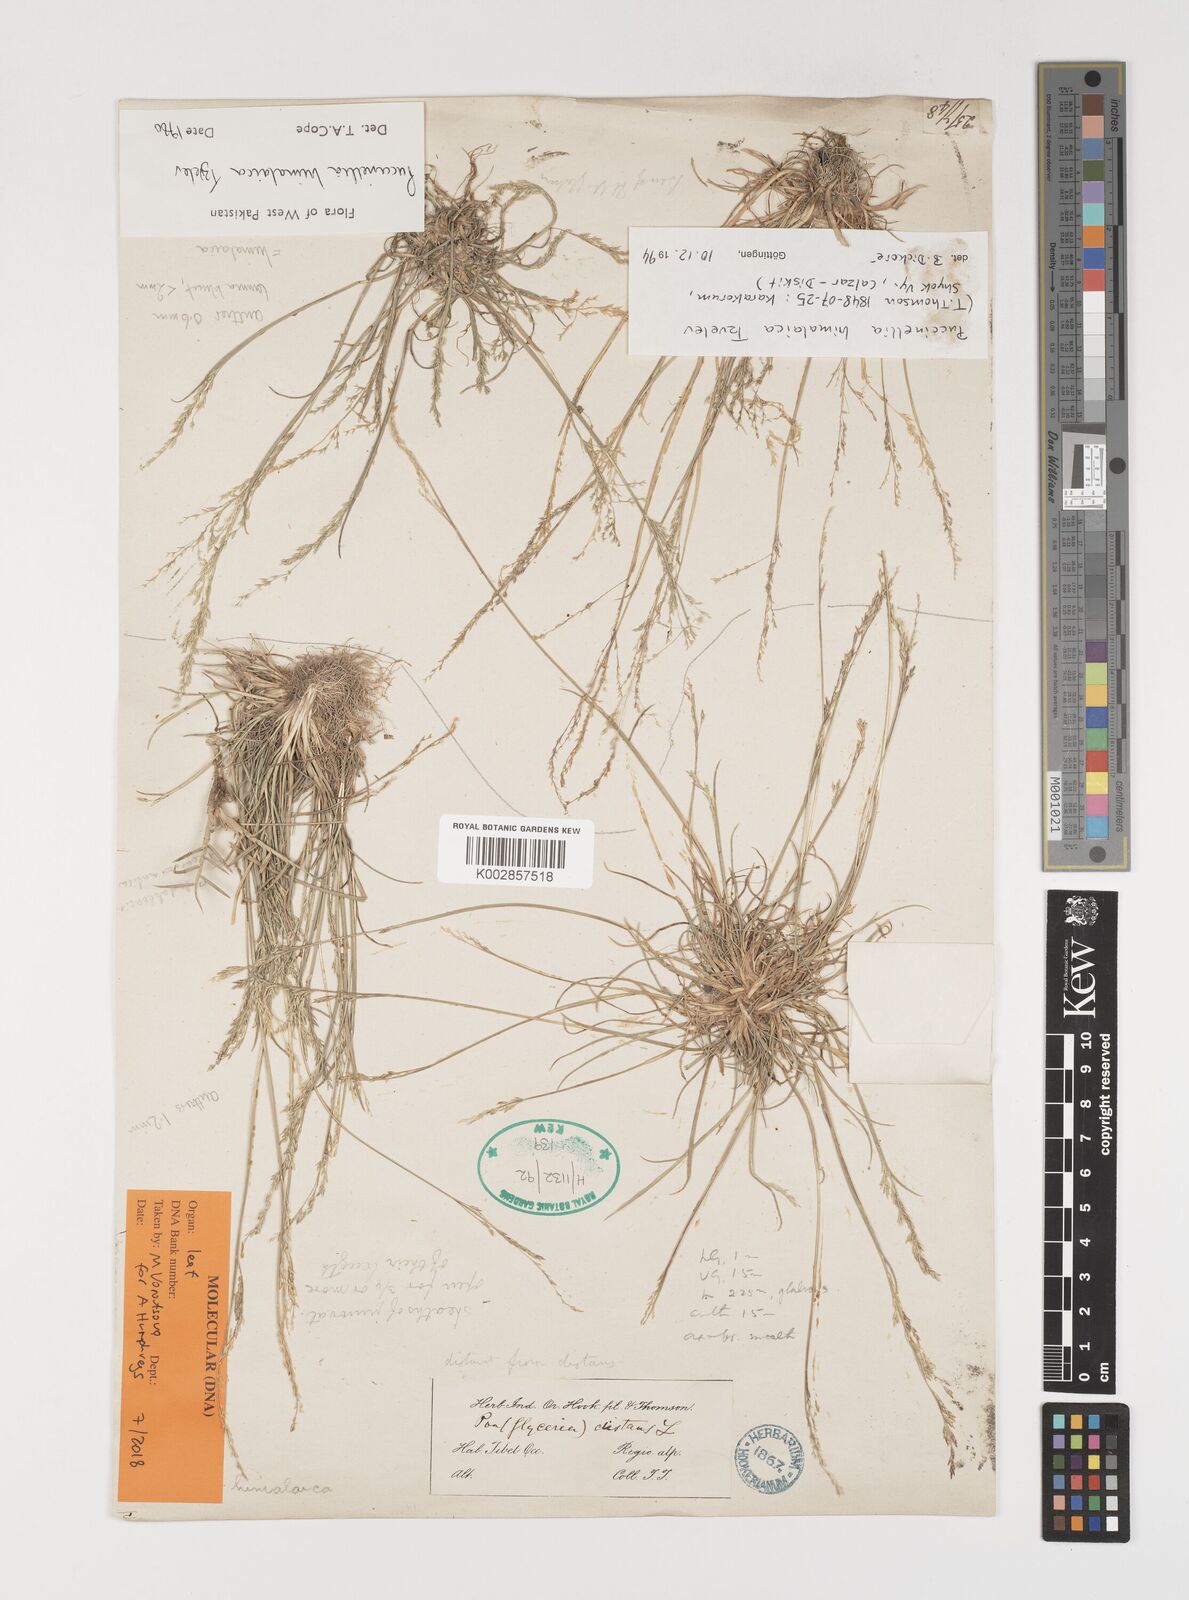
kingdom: Plantae
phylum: Tracheophyta
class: Liliopsida
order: Poales
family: Poaceae
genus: Puccinellia
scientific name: Puccinellia himalaica
